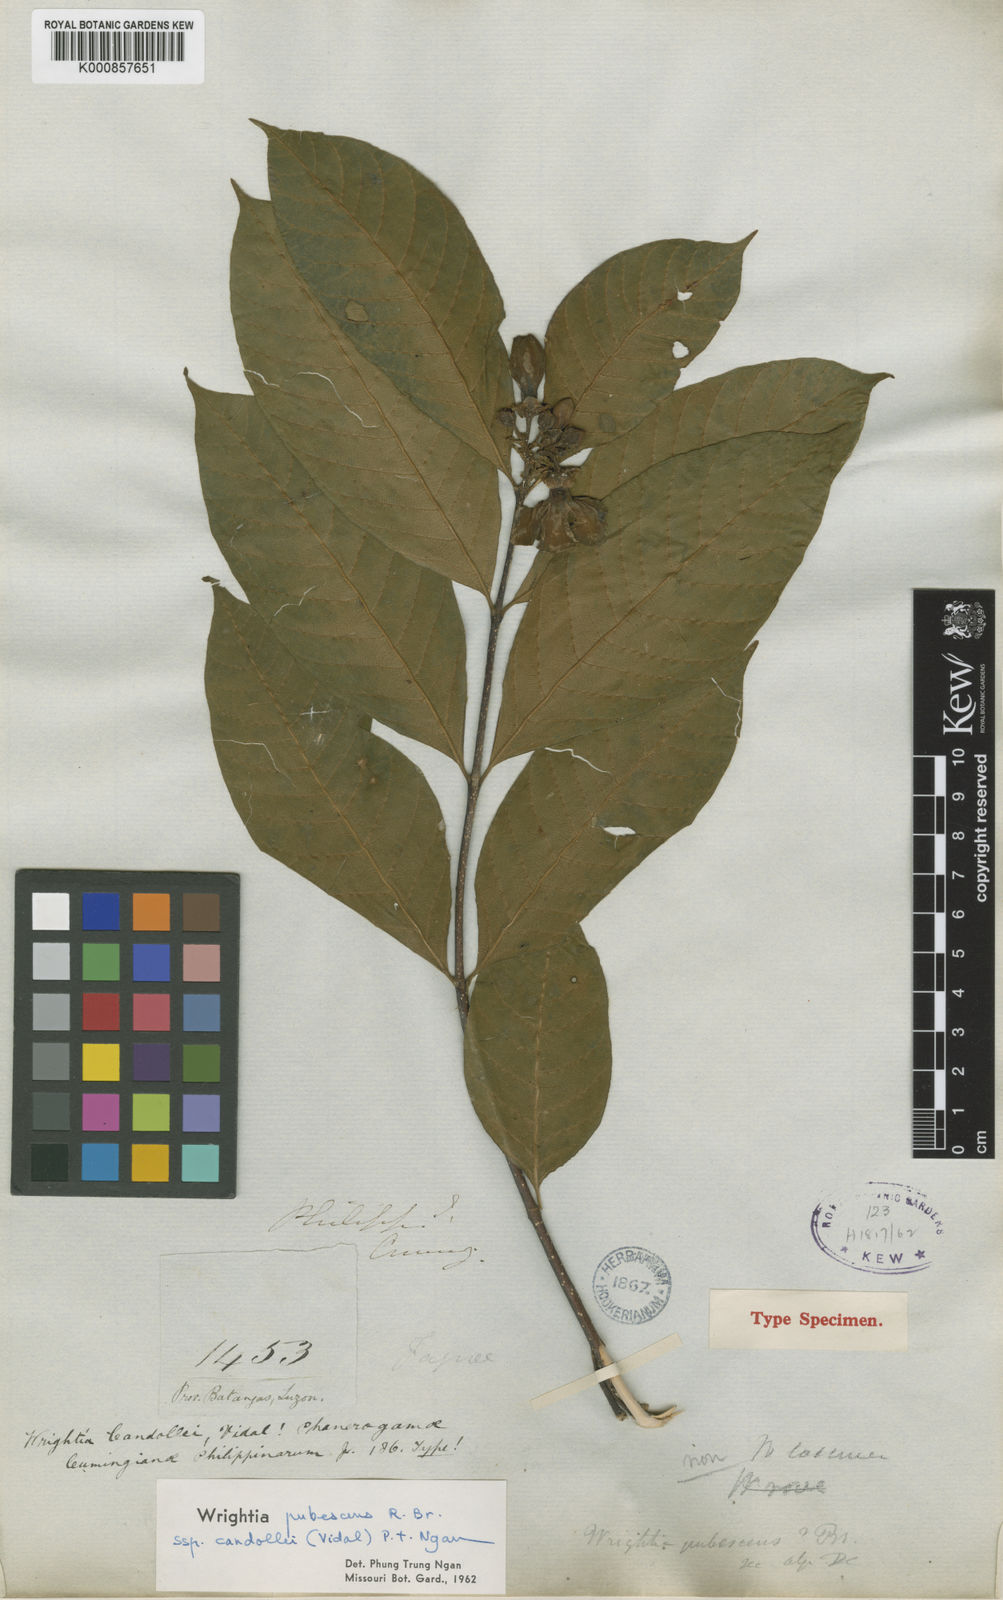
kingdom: Plantae
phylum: Tracheophyta
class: Magnoliopsida
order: Gentianales
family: Apocynaceae
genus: Wrightia
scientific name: Wrightia candollei
